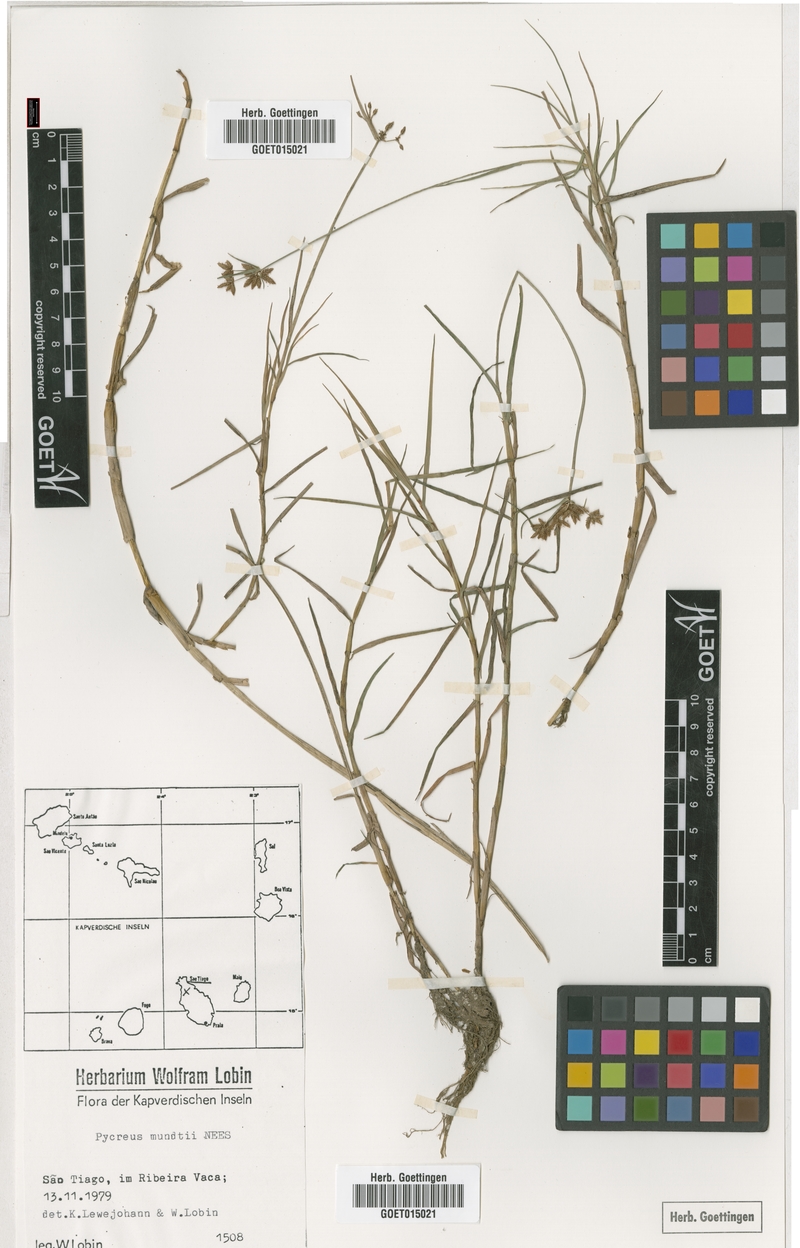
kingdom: Plantae
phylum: Tracheophyta
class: Liliopsida
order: Poales
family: Cyperaceae
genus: Cyperus
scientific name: Cyperus mundii
